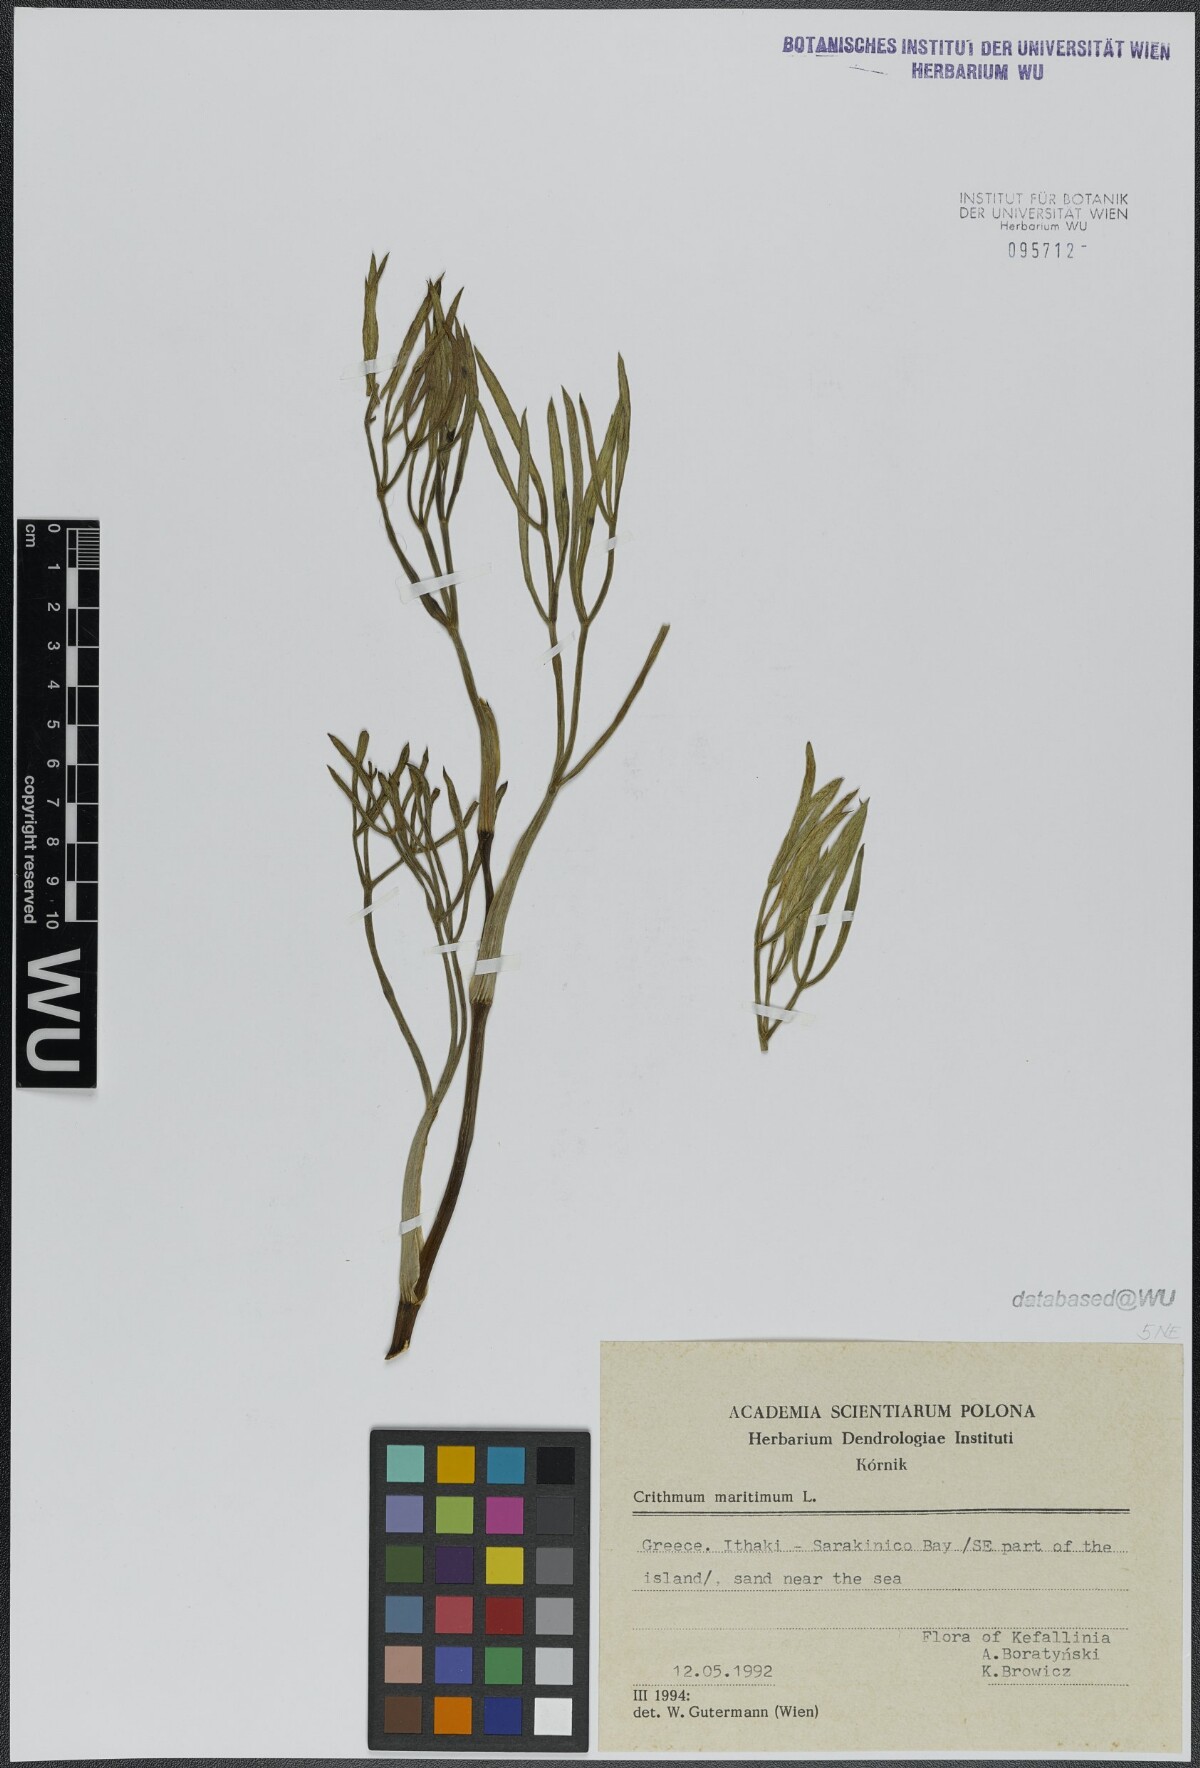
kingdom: Plantae
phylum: Tracheophyta
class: Magnoliopsida
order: Apiales
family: Apiaceae
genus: Crithmum
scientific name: Crithmum maritimum
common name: Rock samphire
